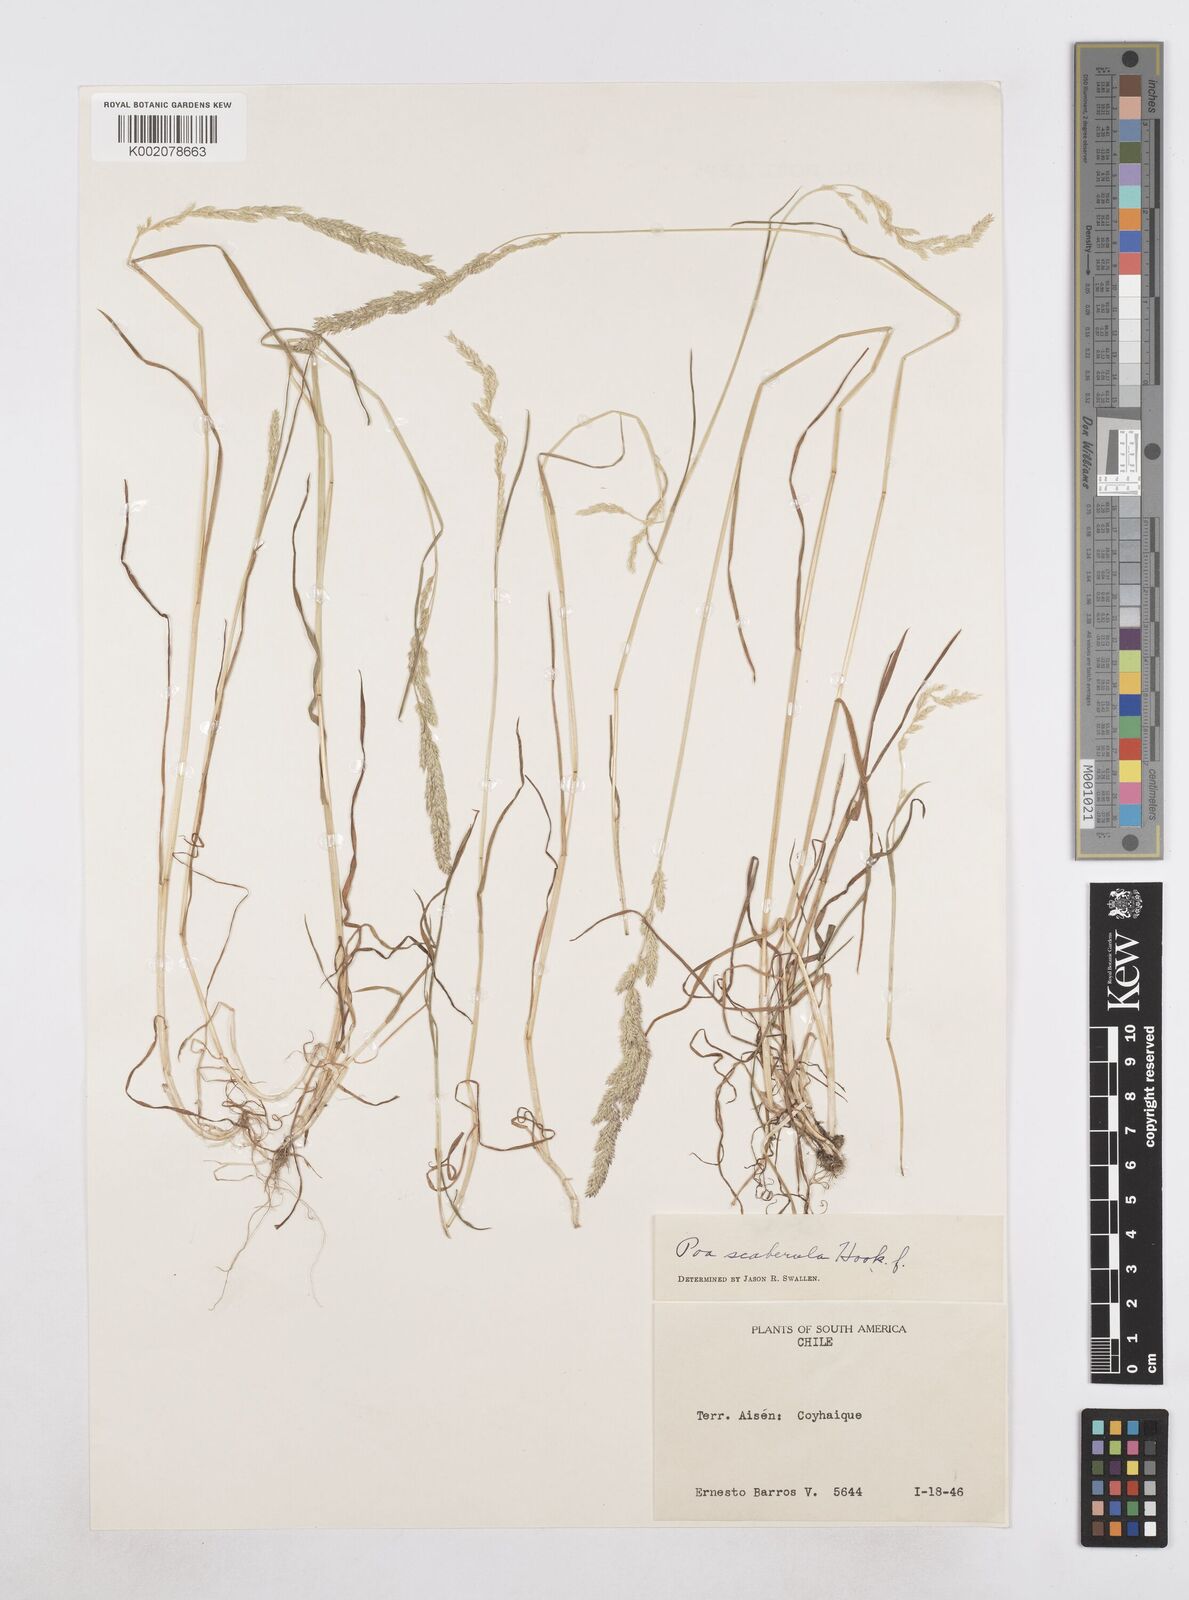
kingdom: Plantae
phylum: Tracheophyta
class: Liliopsida
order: Poales
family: Poaceae
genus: Poa
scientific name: Poa scaberula
